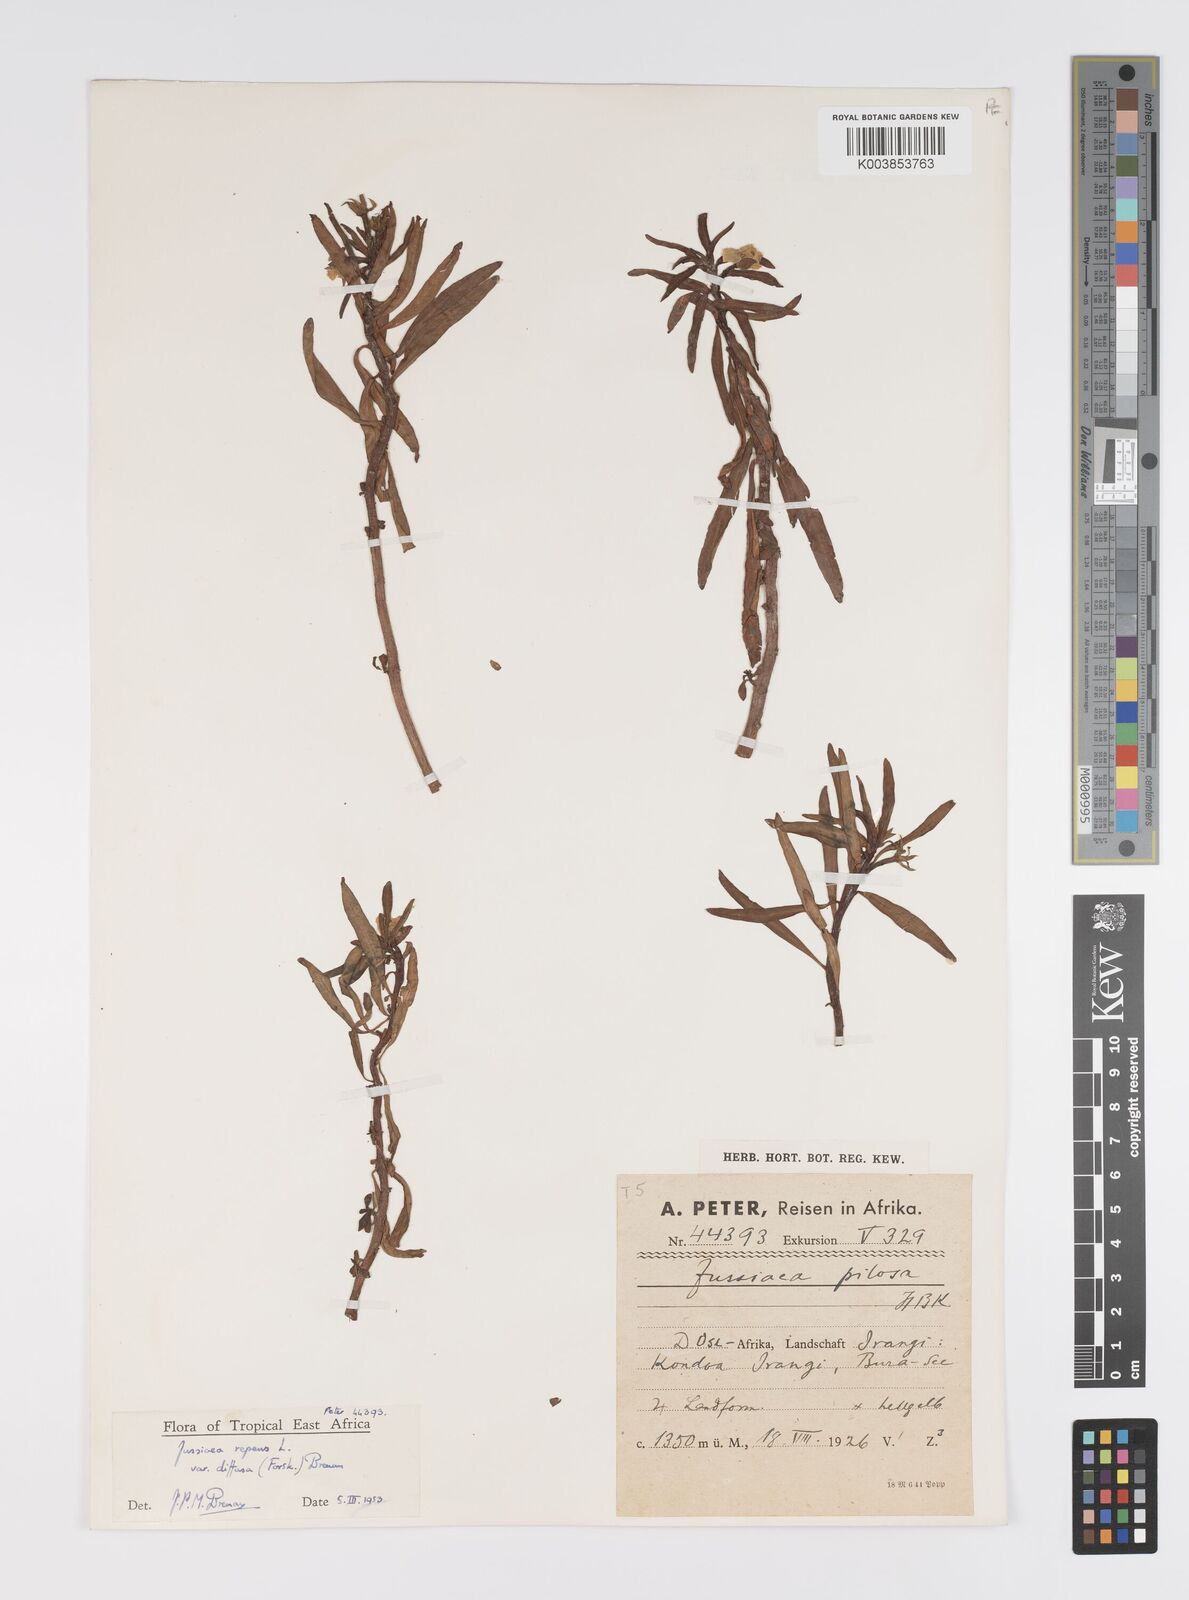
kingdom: Plantae
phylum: Tracheophyta
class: Magnoliopsida
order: Myrtales
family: Onagraceae
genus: Ludwigia
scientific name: Ludwigia repens
